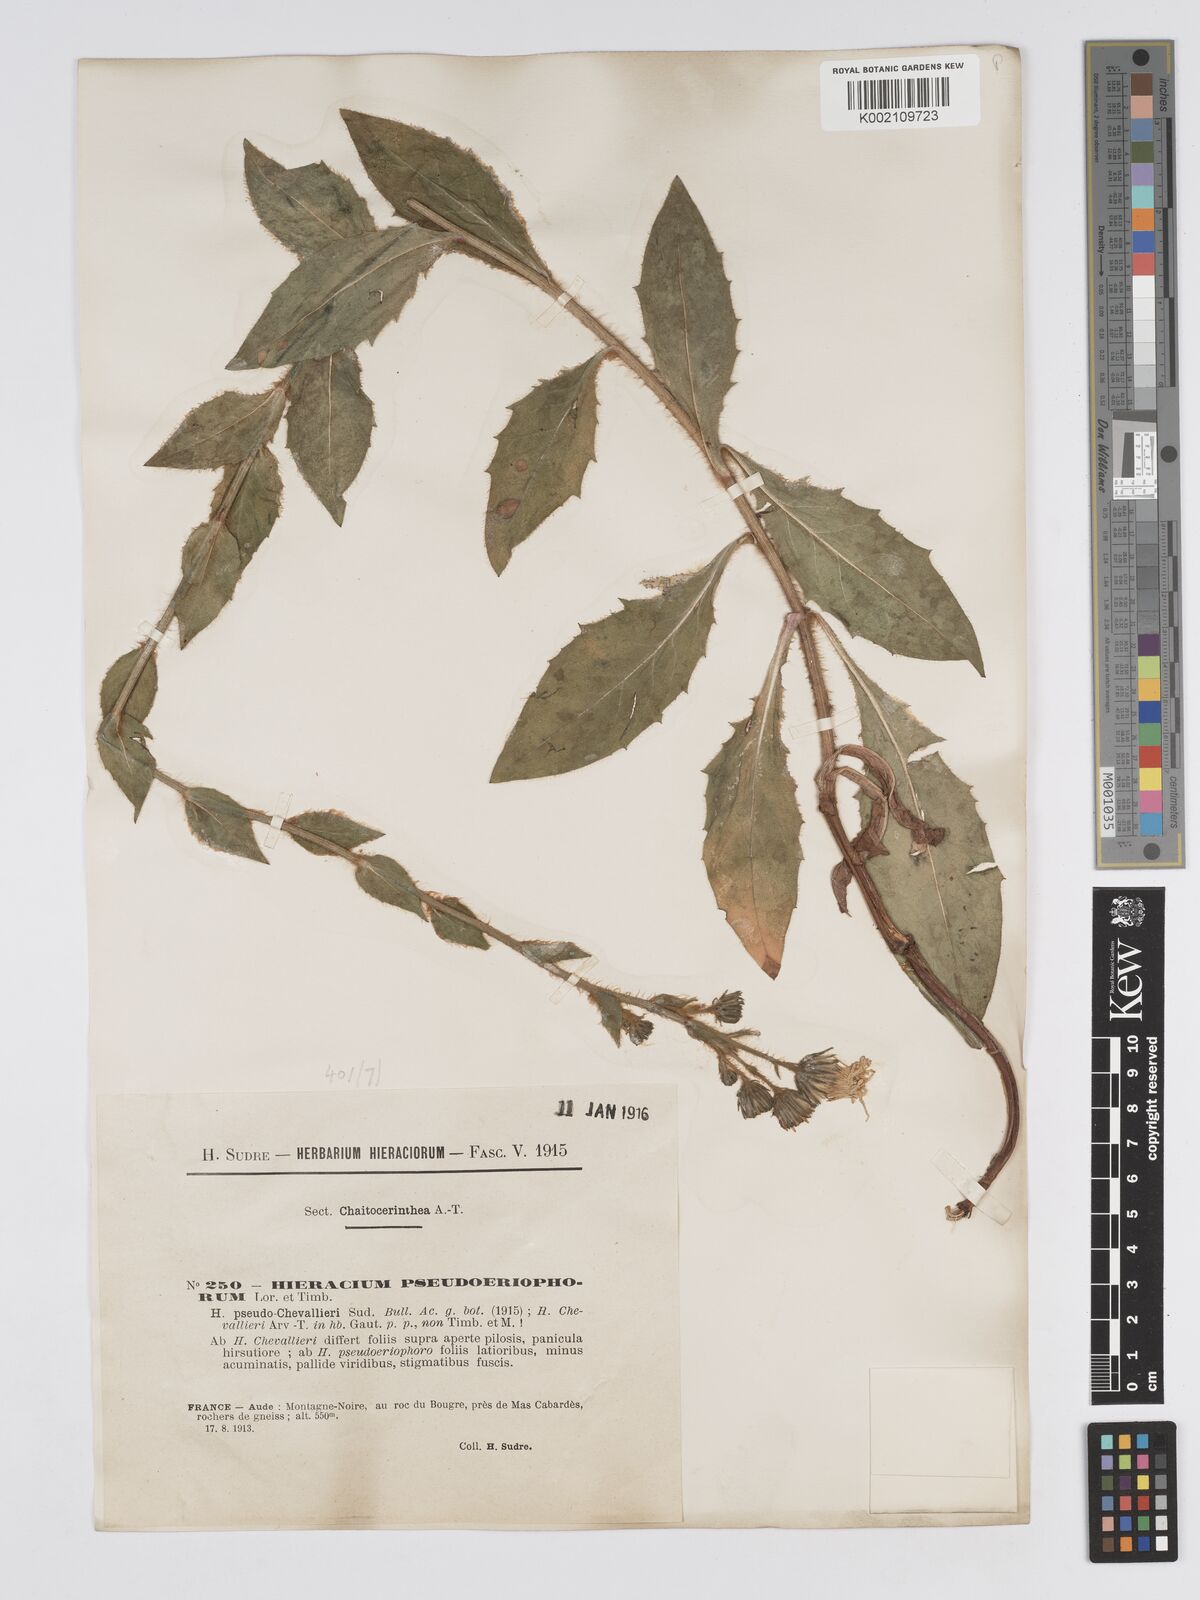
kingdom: Plantae
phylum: Tracheophyta
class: Magnoliopsida
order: Asterales
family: Asteraceae
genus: Hieracium
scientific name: Hieracium
